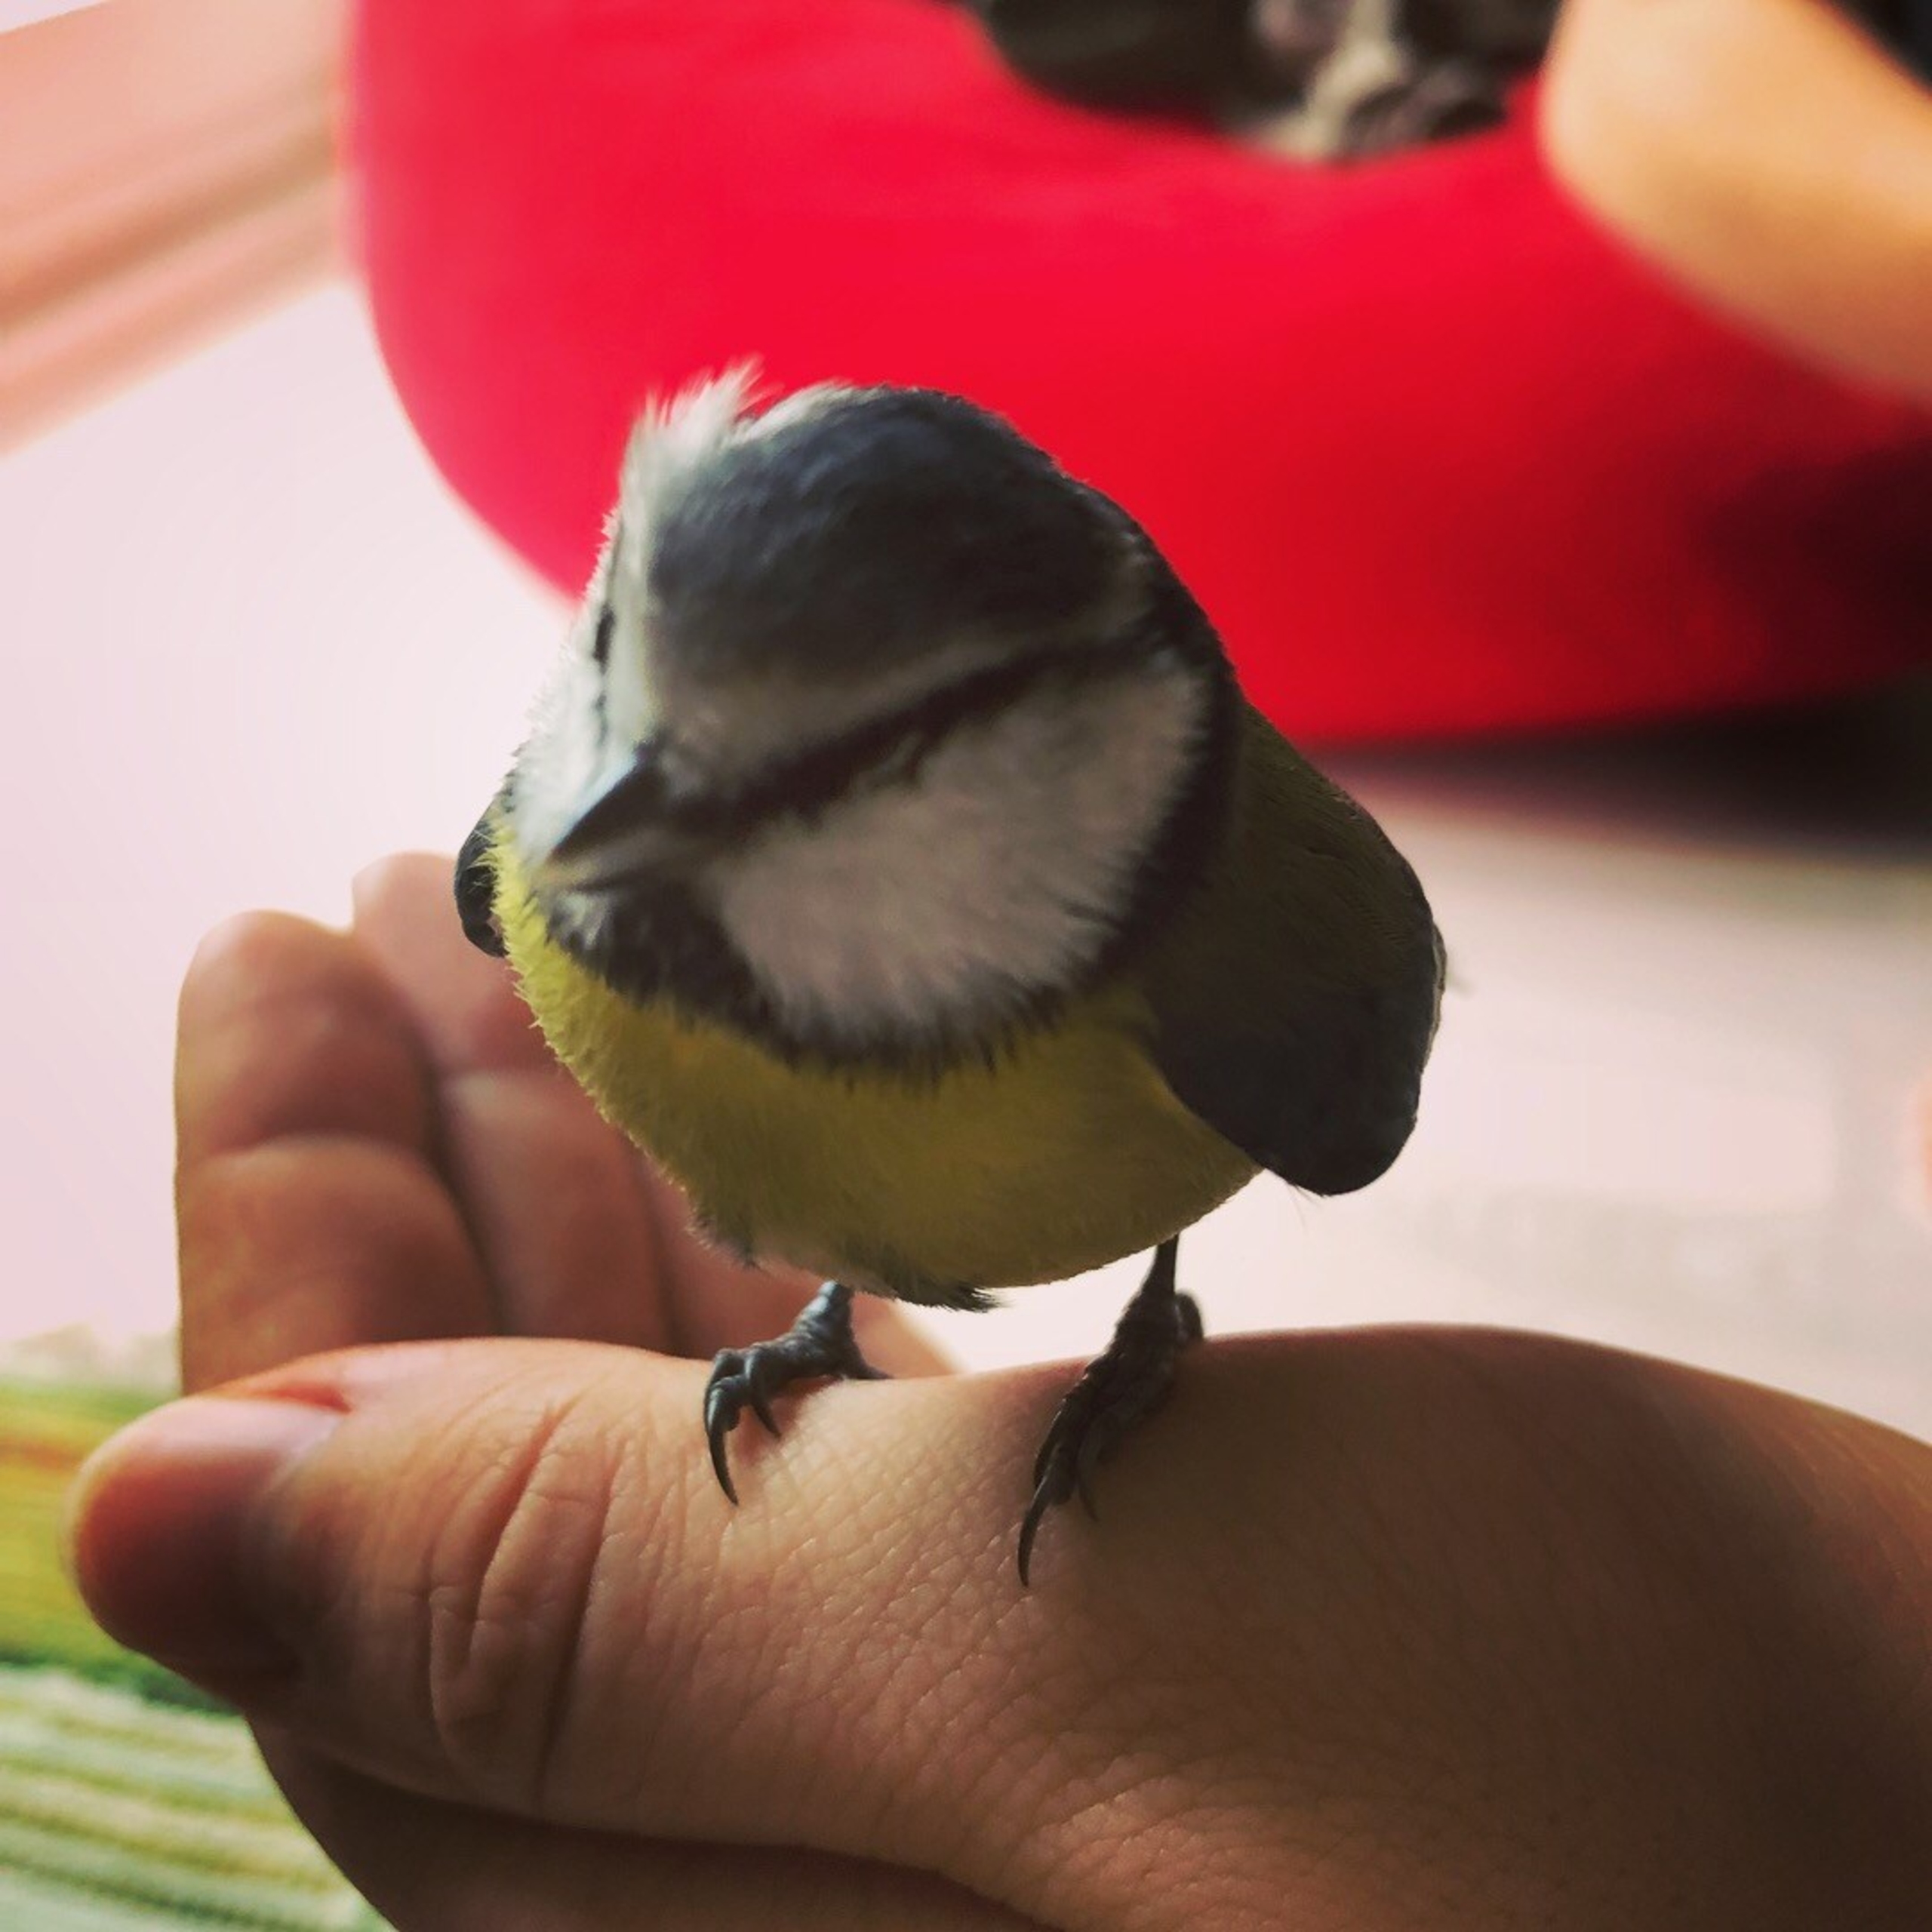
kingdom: Animalia
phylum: Chordata
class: Aves
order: Passeriformes
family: Paridae
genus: Cyanistes
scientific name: Cyanistes caeruleus
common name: Blåmejse
